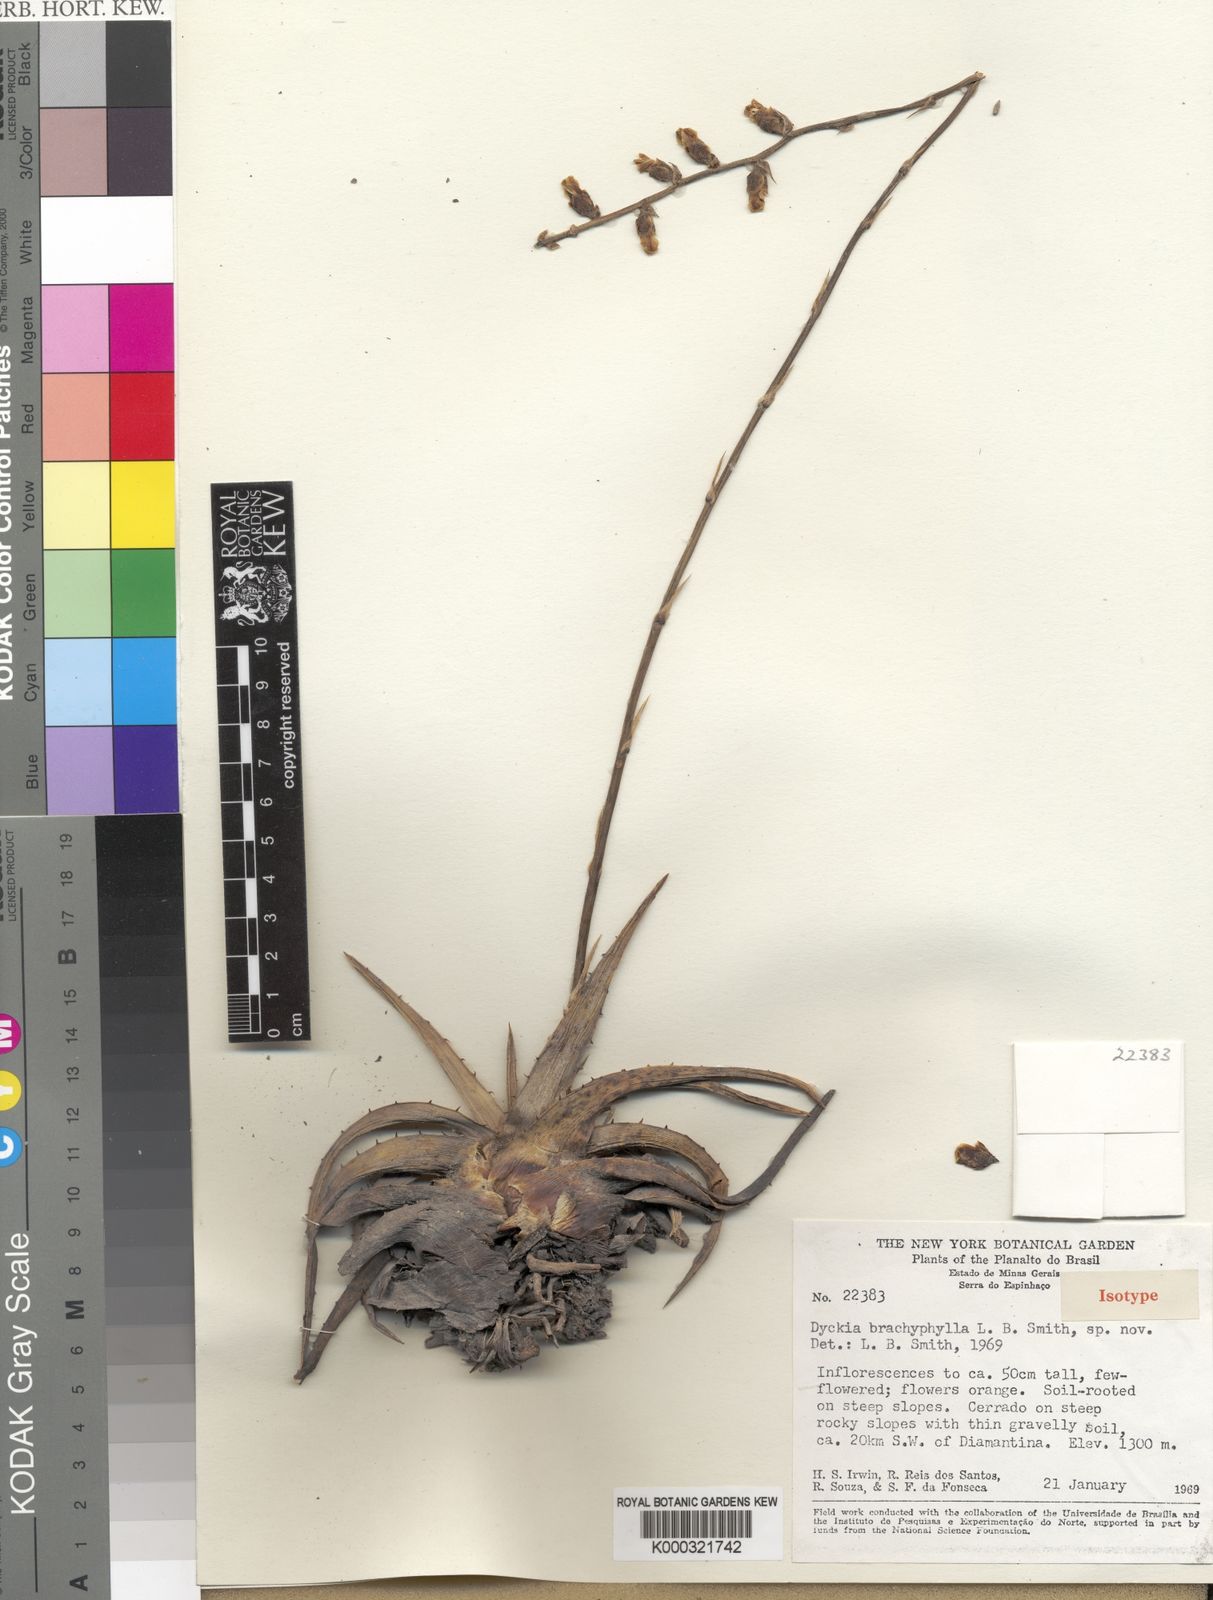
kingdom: Plantae
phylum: Tracheophyta
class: Liliopsida
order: Poales
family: Bromeliaceae
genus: Dyckia
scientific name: Dyckia brachyphylla
